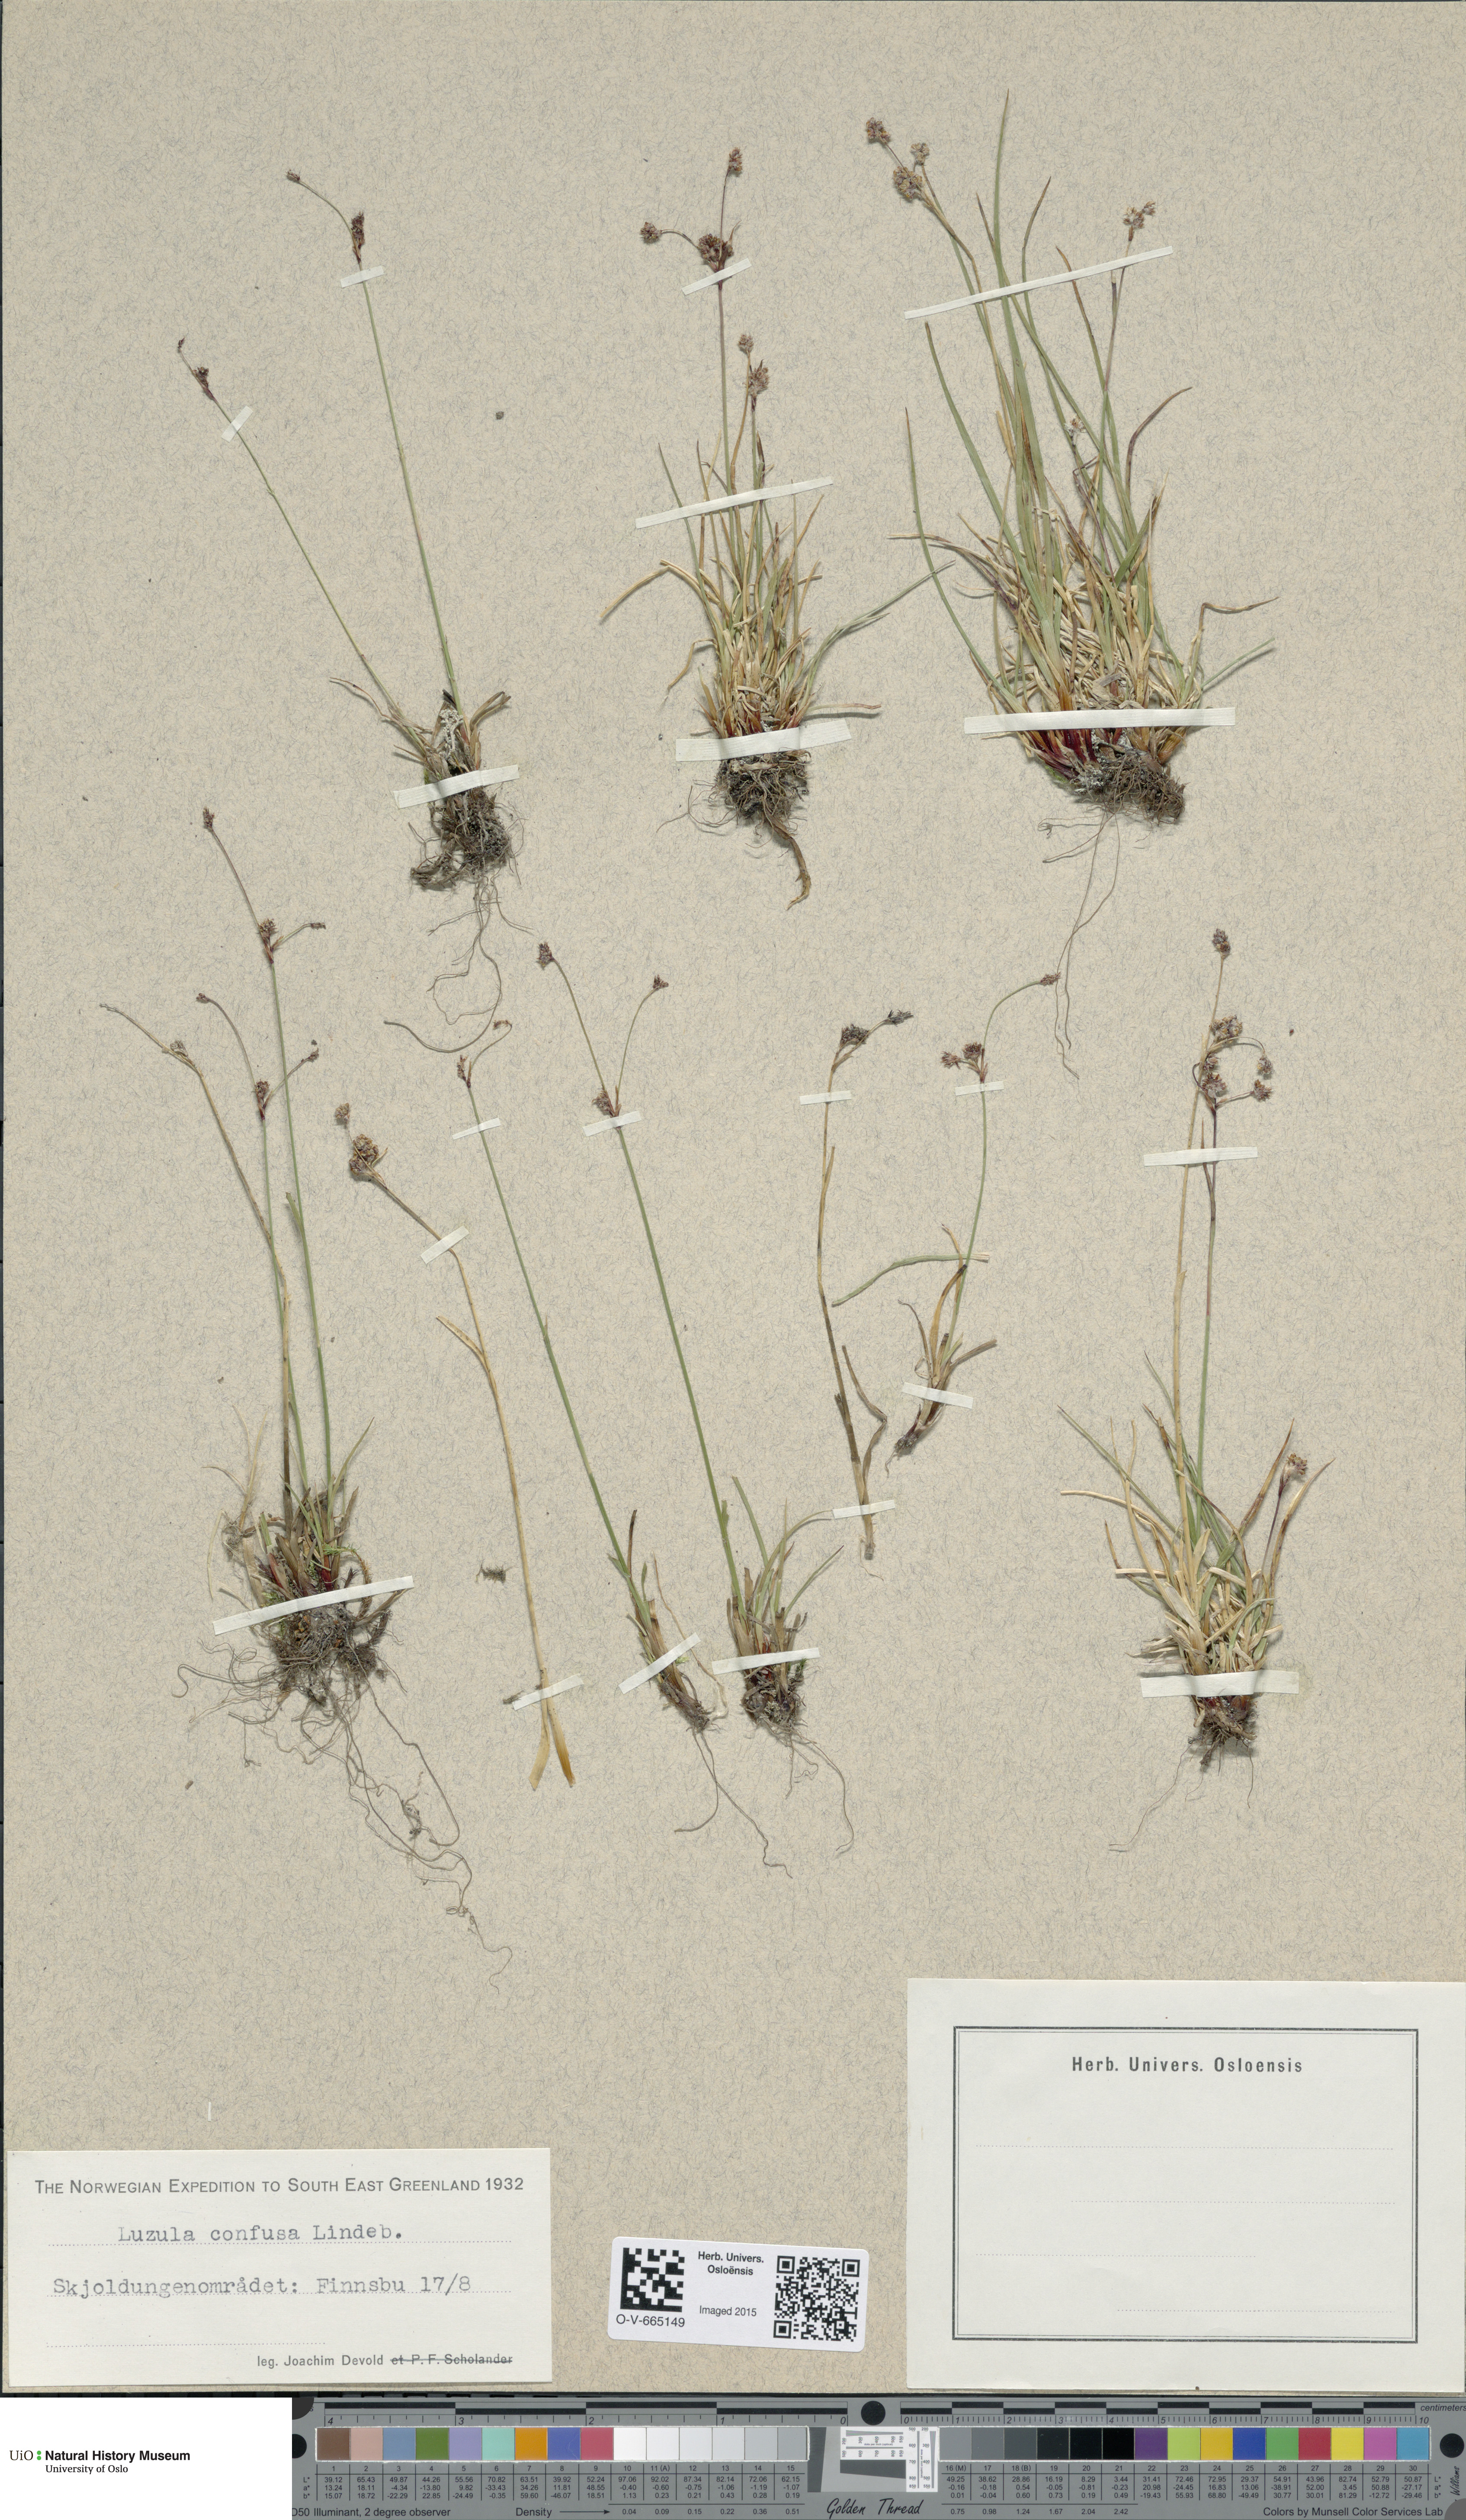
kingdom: Plantae
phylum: Tracheophyta
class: Liliopsida
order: Poales
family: Juncaceae
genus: Luzula
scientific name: Luzula confusa
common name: Northern wood rush
